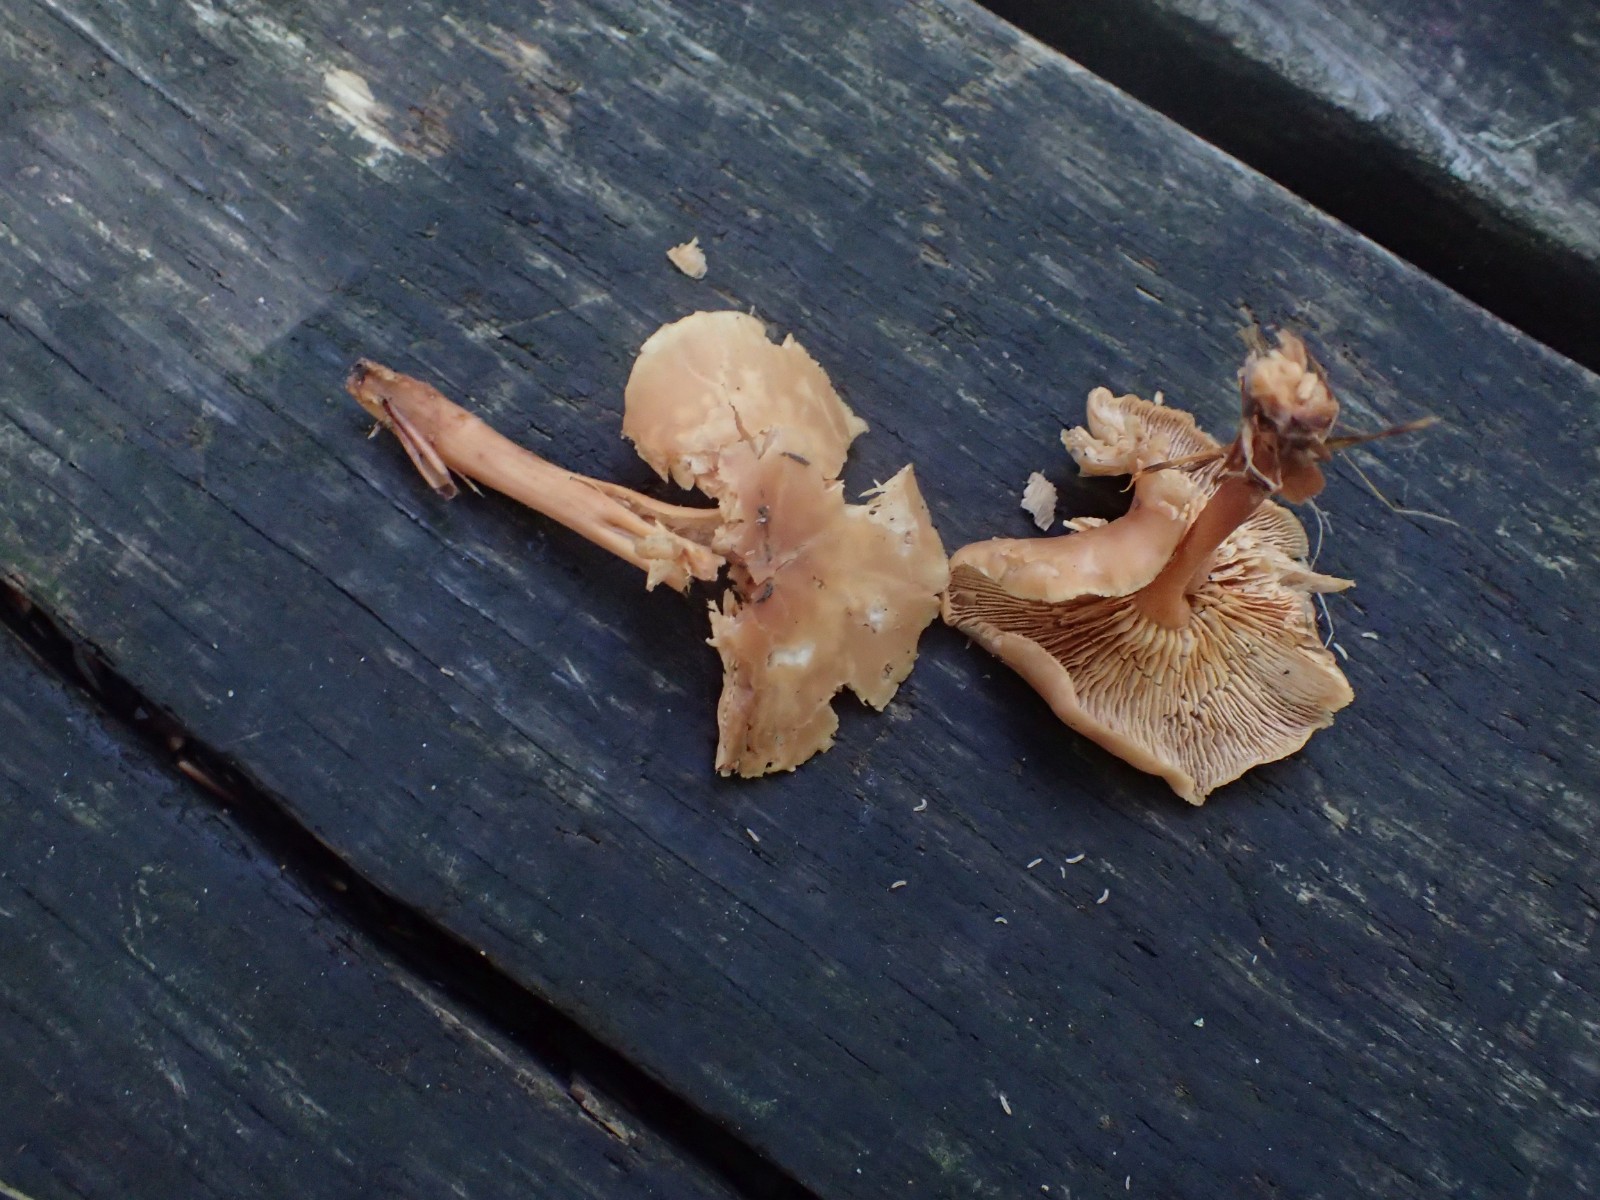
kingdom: Fungi
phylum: Basidiomycota
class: Agaricomycetes
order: Agaricales
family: Omphalotaceae
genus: Gymnopus
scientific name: Gymnopus dryophilus
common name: løv-fladhat
